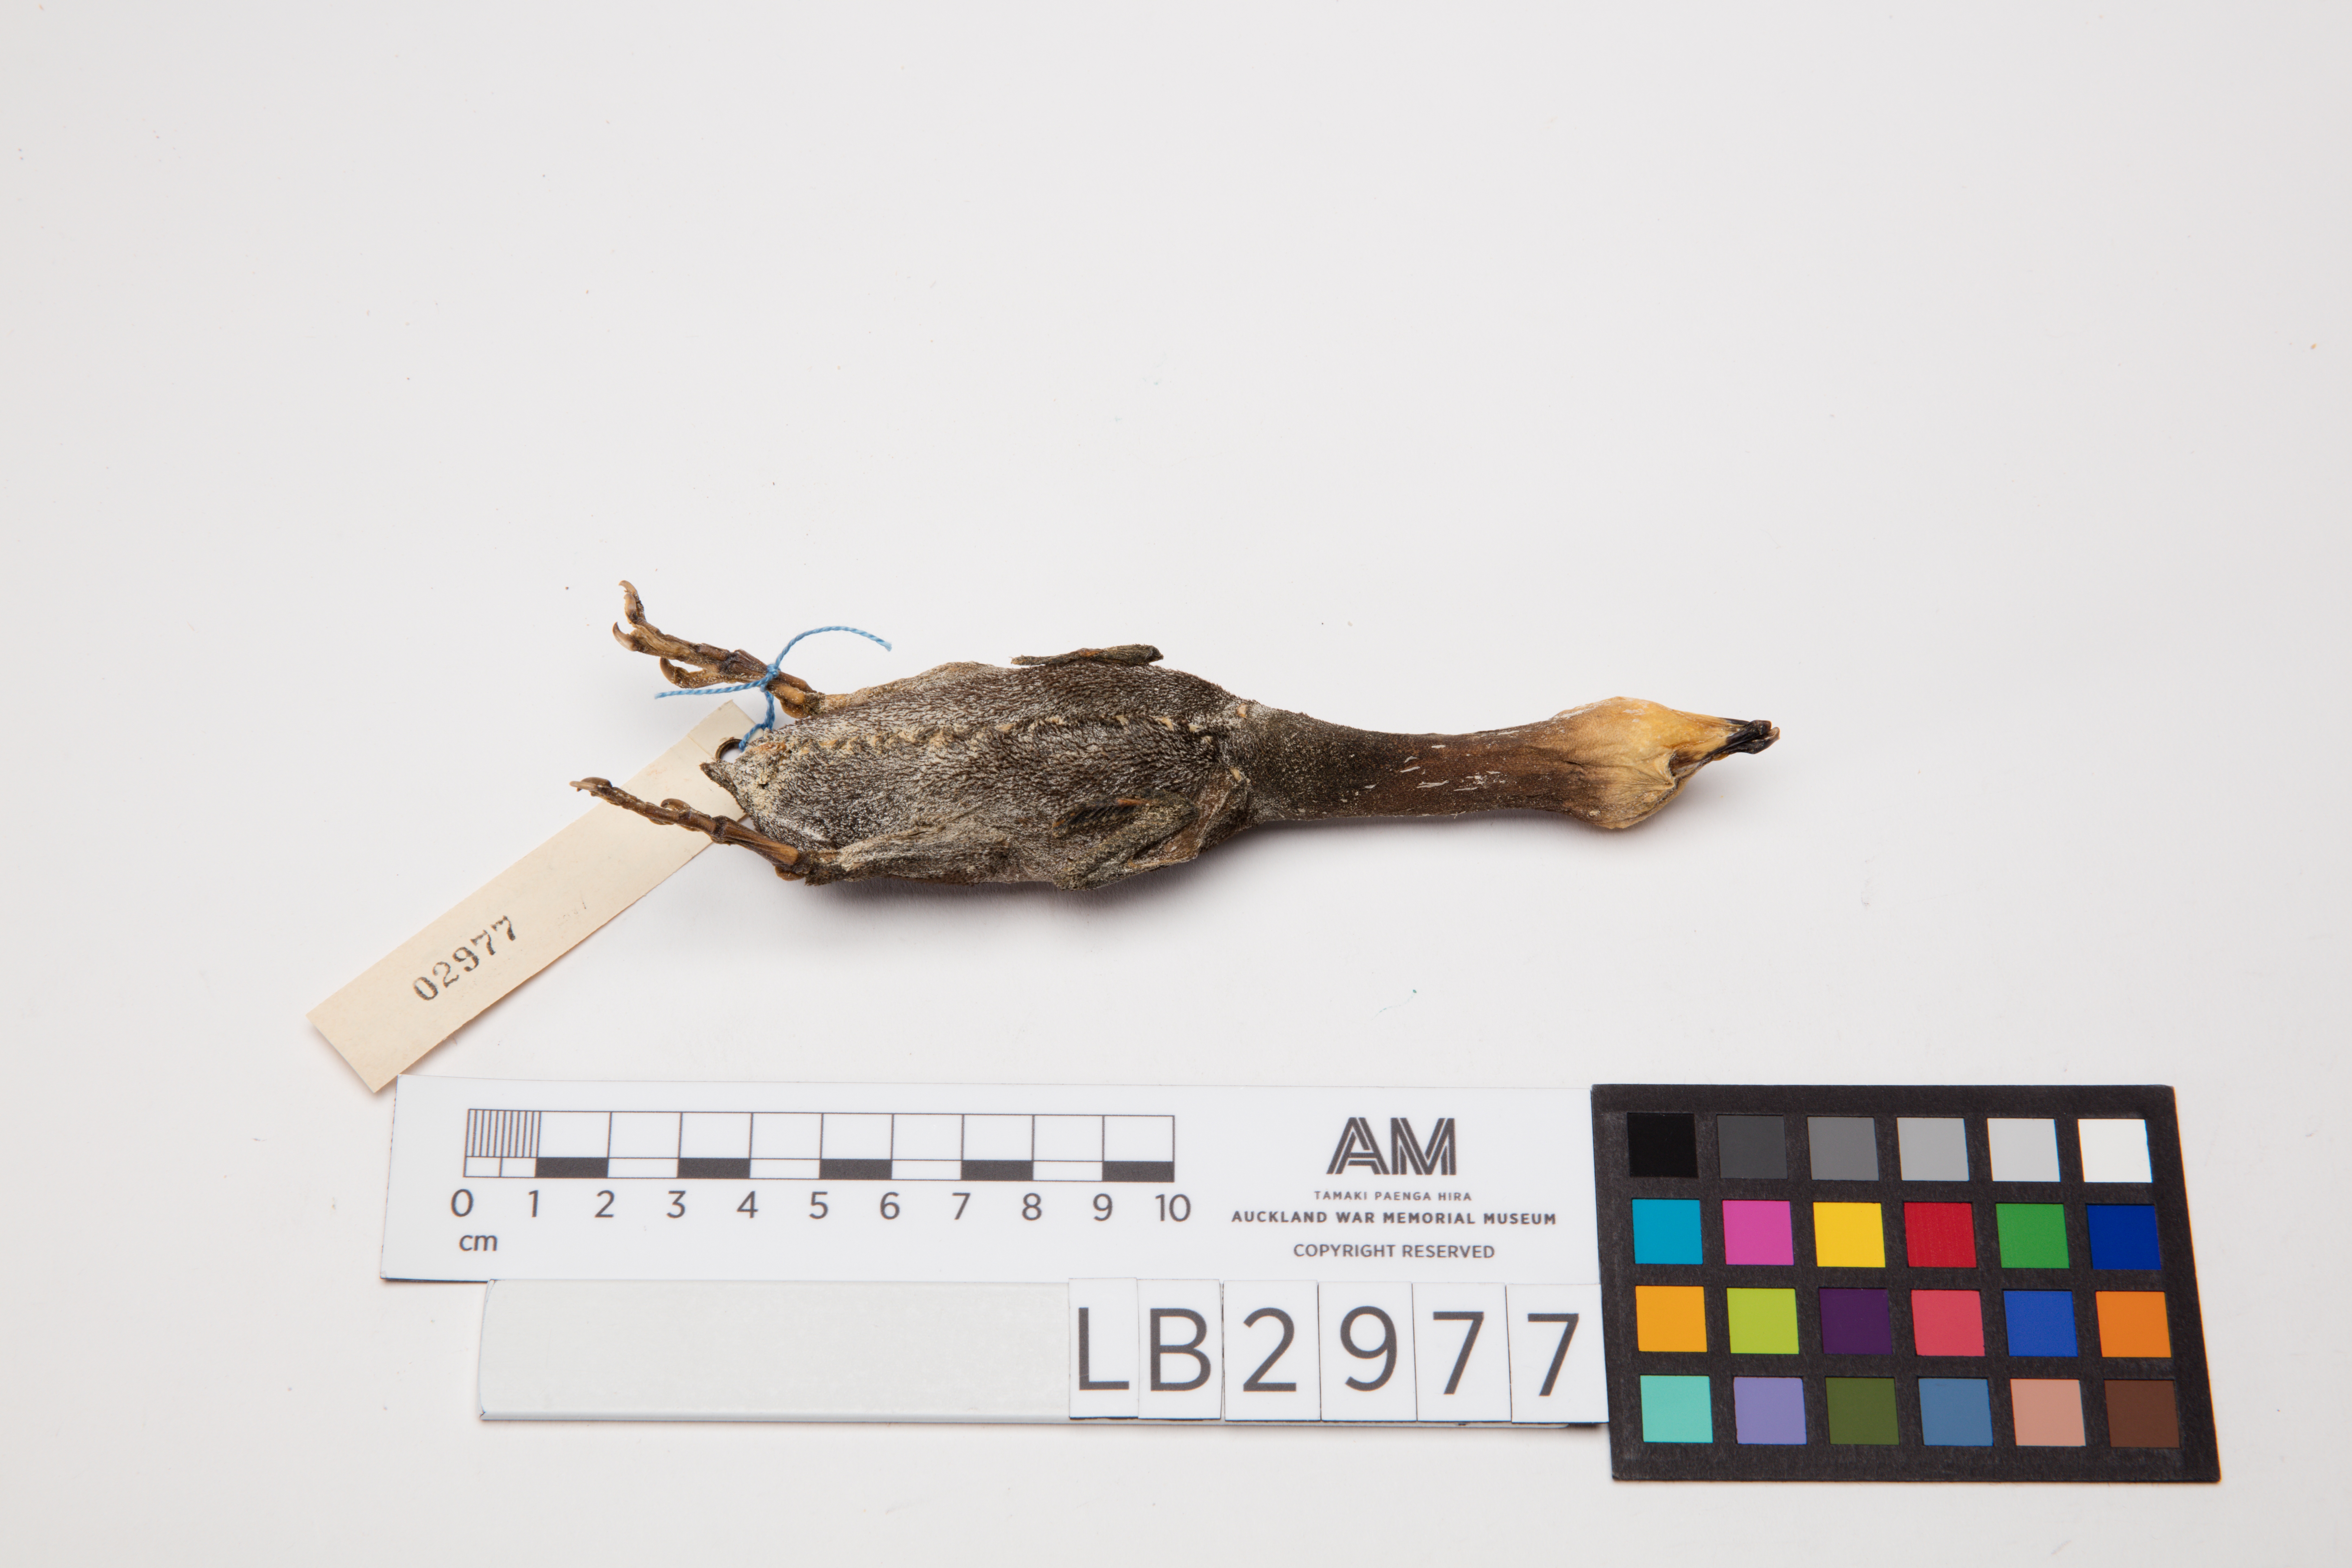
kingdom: Animalia
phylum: Chordata
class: Aves
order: Suliformes
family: Phalacrocoracidae
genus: Microcarbo
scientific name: Microcarbo melanoleucos
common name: Little pied cormorant
